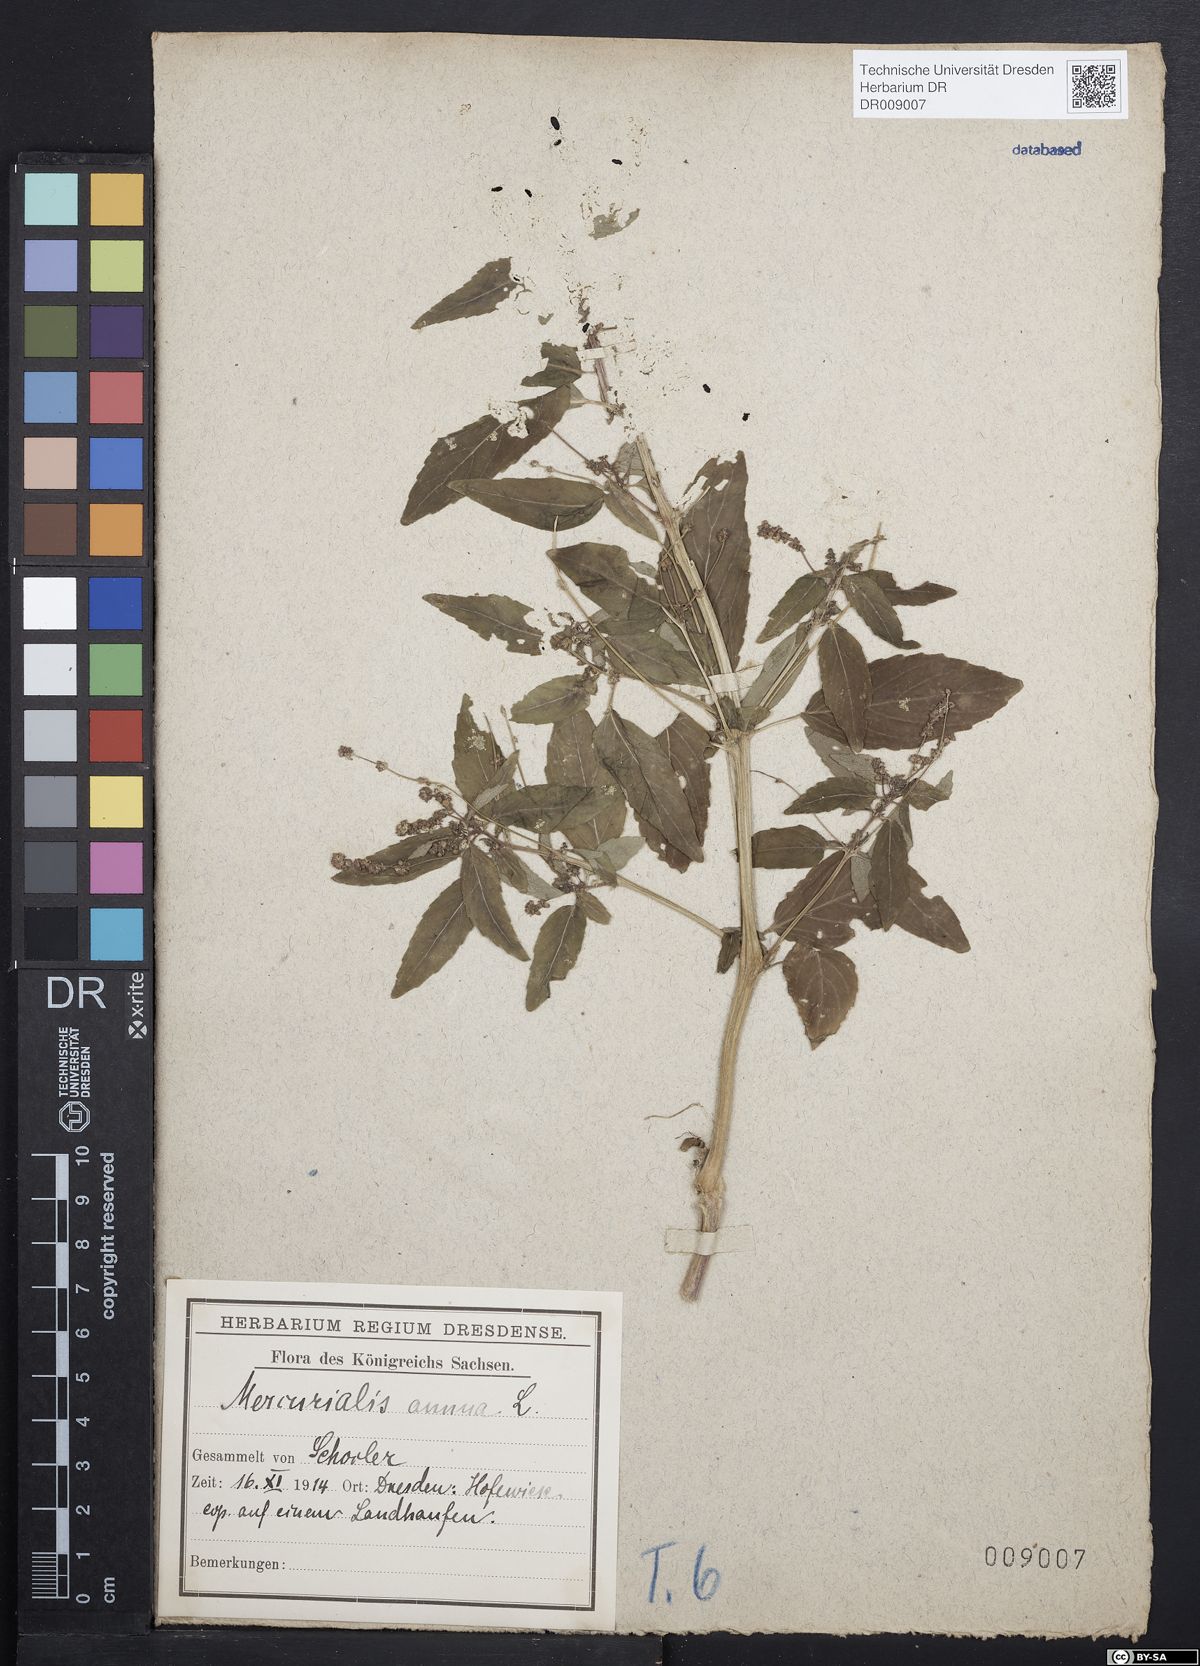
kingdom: Plantae
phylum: Tracheophyta
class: Magnoliopsida
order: Malpighiales
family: Euphorbiaceae
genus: Mercurialis
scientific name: Mercurialis annua
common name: Annual mercury
